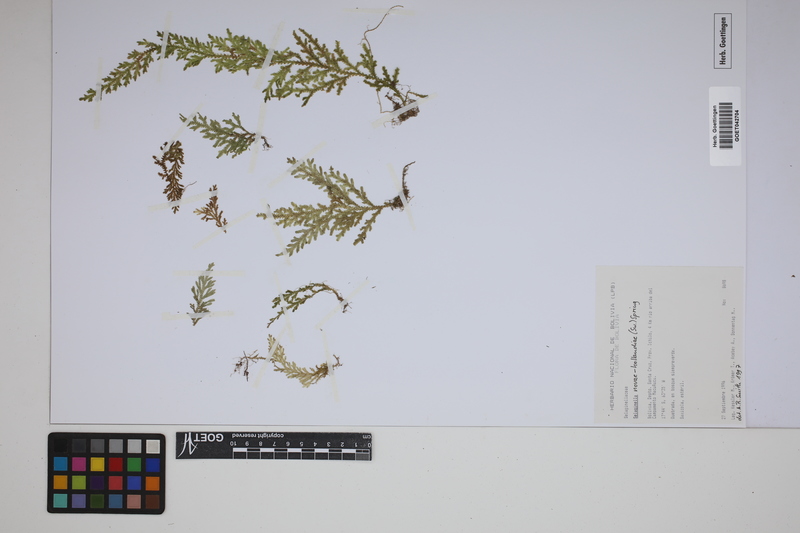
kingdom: Plantae
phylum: Tracheophyta
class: Lycopodiopsida
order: Selaginellales
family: Selaginellaceae
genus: Selaginella
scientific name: Selaginella novae-hollandiae
